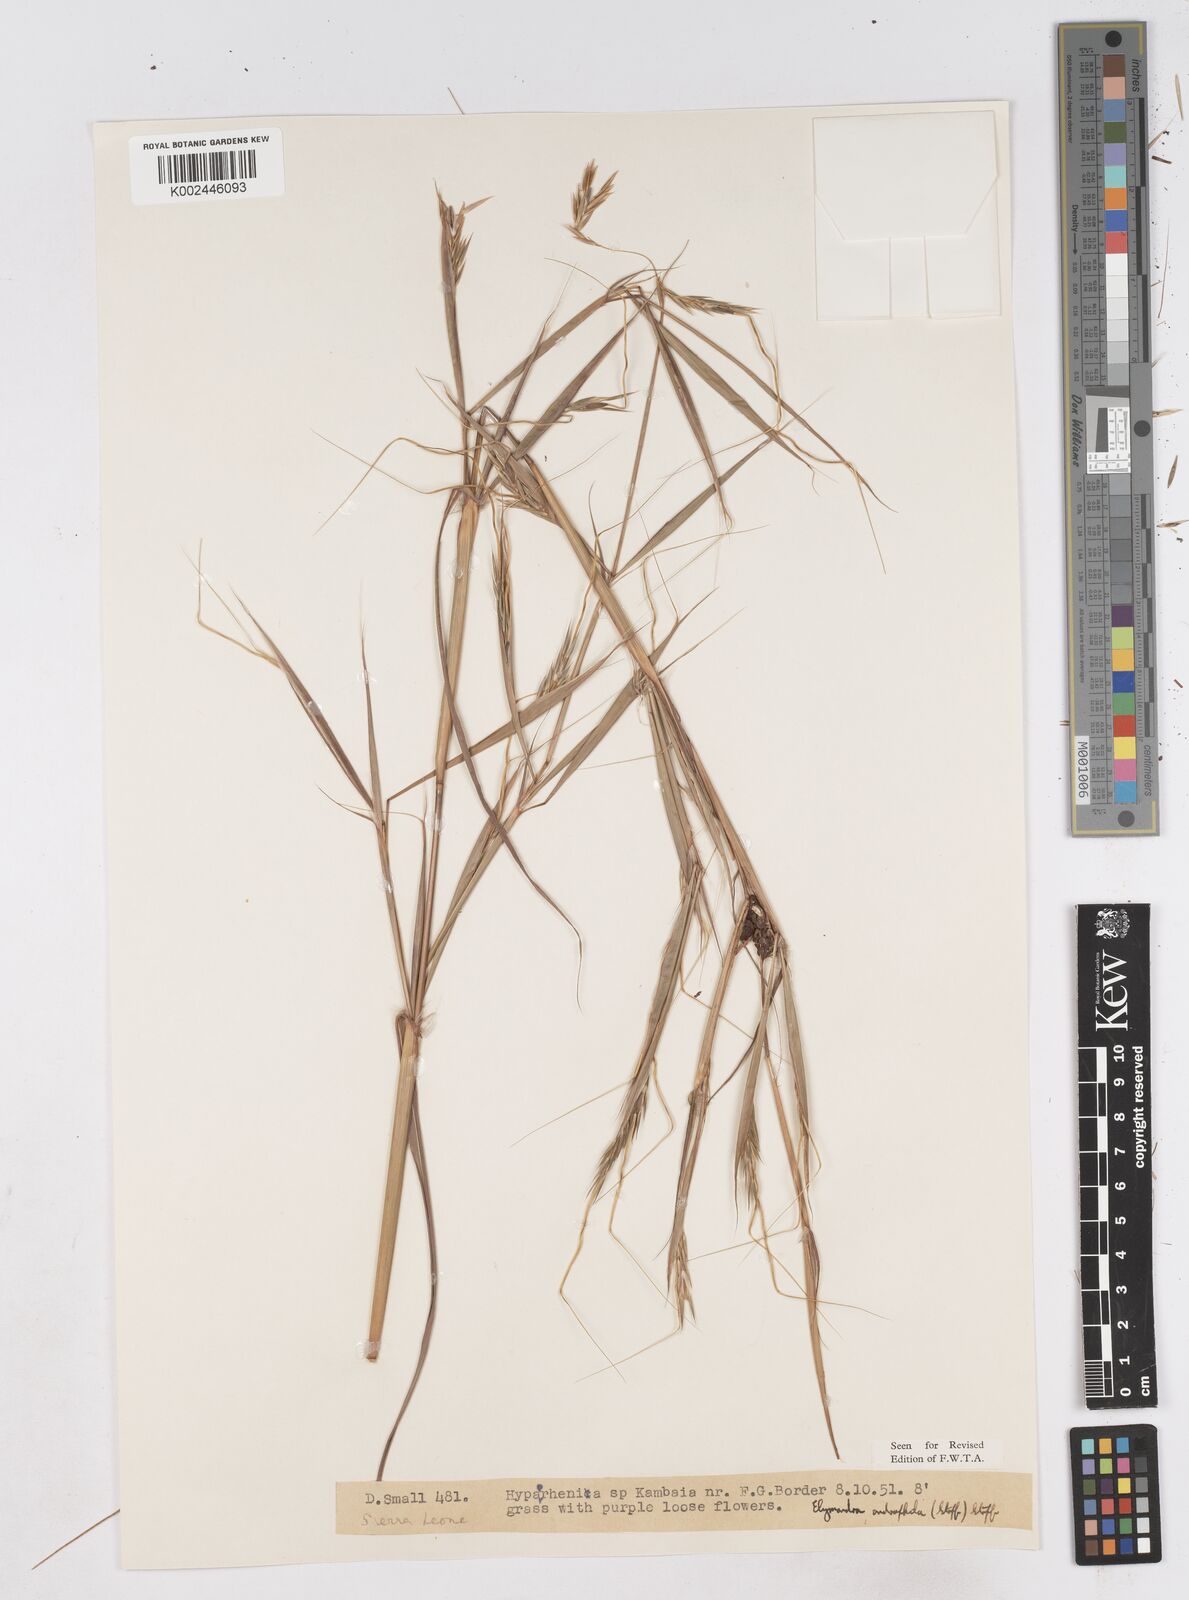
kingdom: Plantae
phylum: Tracheophyta
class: Liliopsida
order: Poales
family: Poaceae
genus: Elymandra
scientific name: Elymandra androphila
